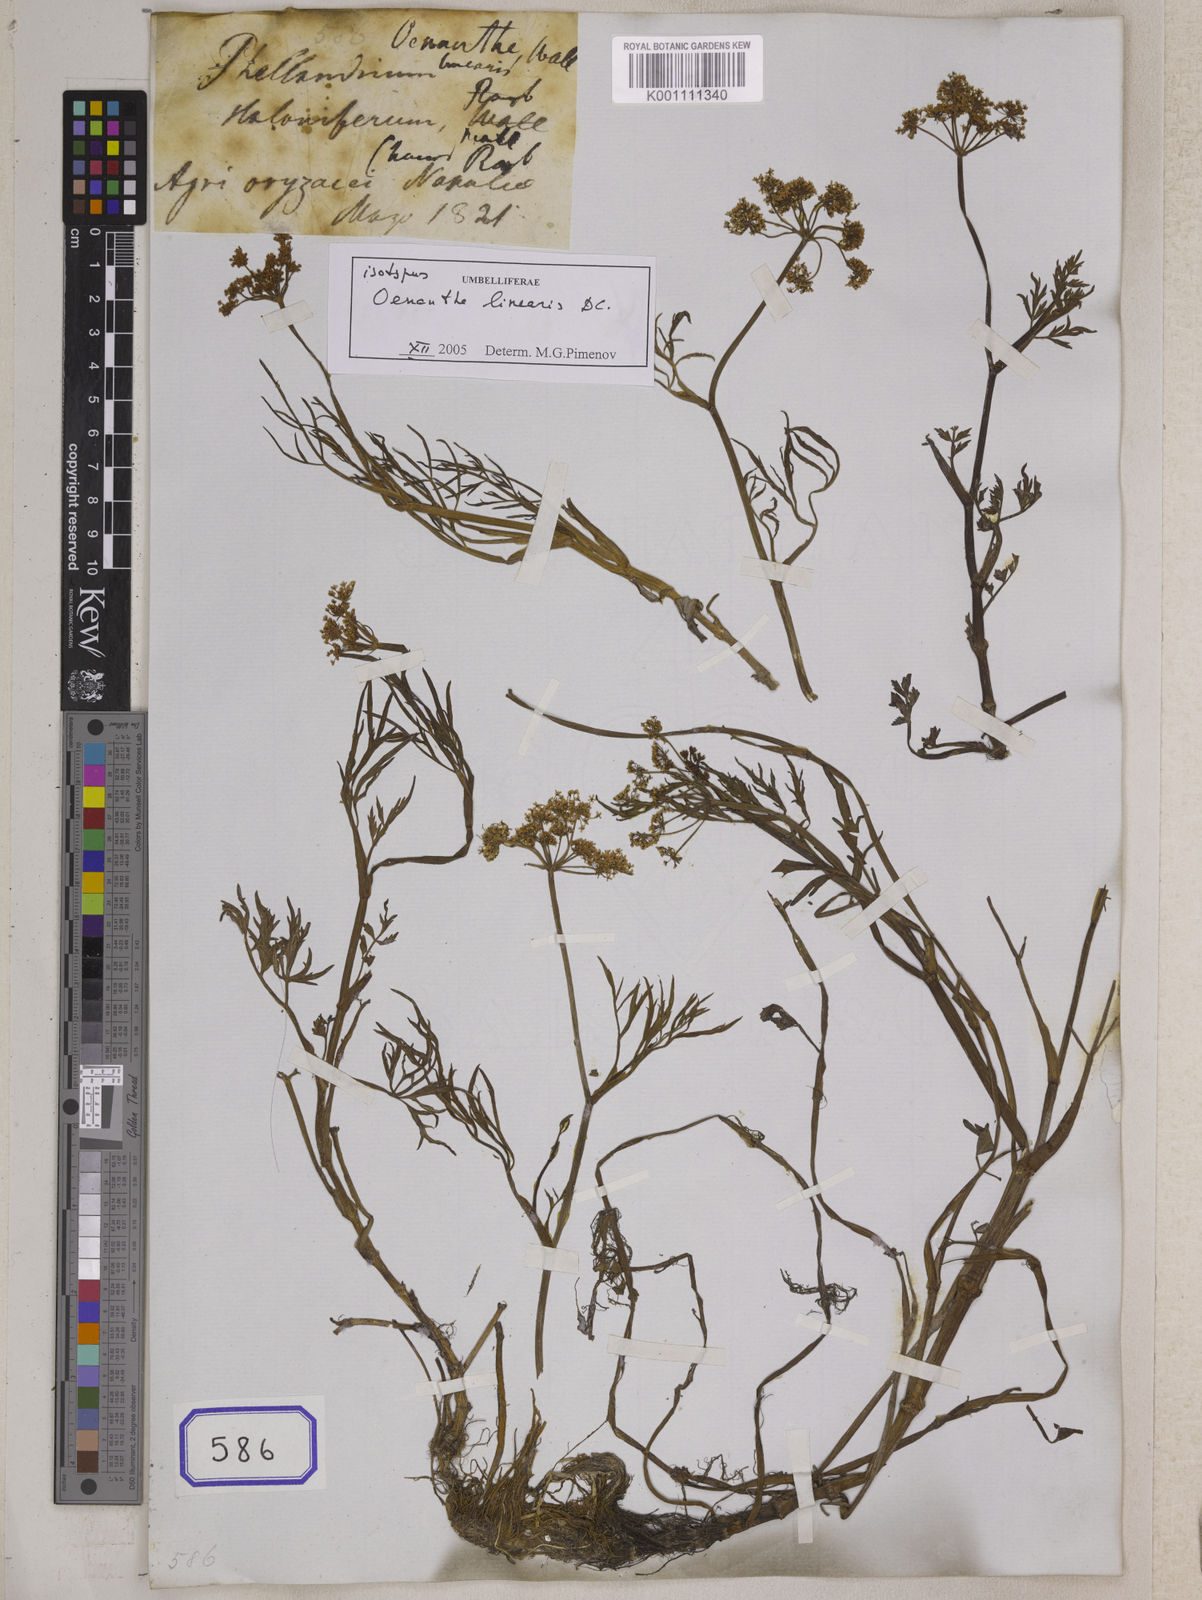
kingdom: Plantae
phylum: Tracheophyta
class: Magnoliopsida
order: Apiales
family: Apiaceae
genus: Oenanthe
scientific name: Oenanthe
